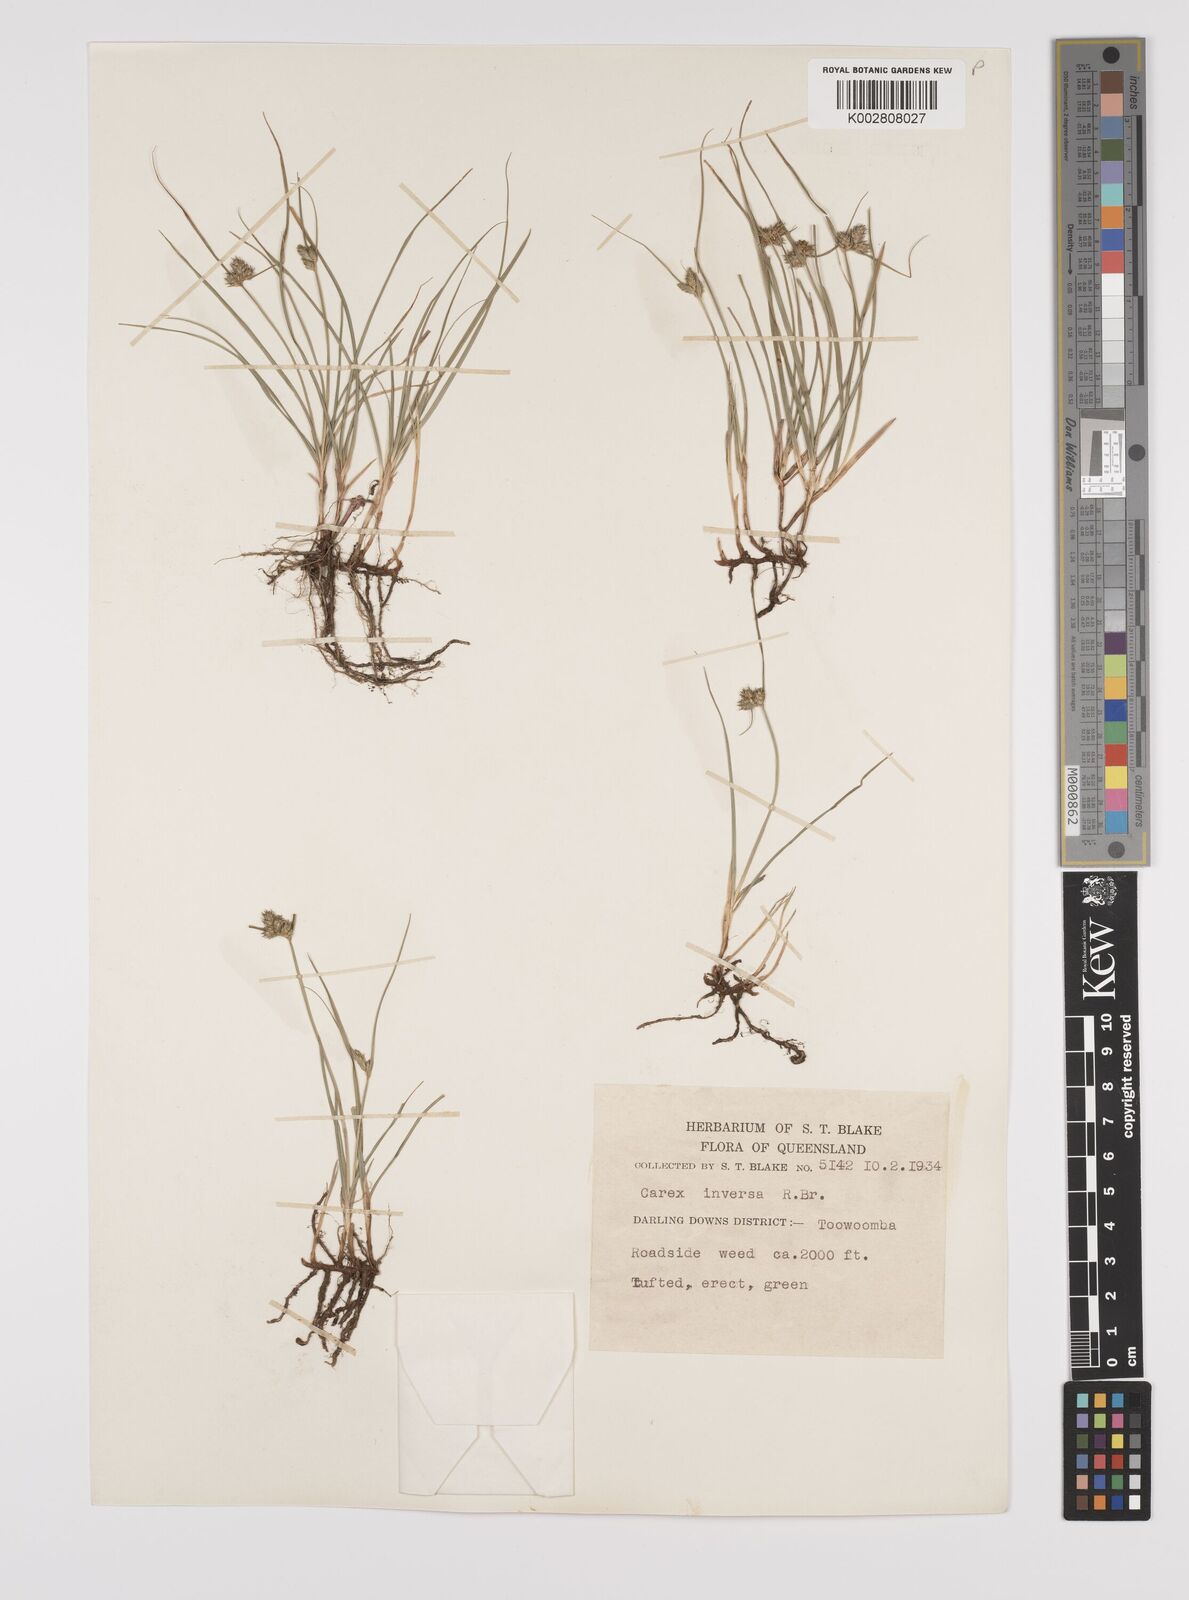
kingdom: Plantae
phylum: Tracheophyta
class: Liliopsida
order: Poales
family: Cyperaceae
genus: Carex
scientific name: Carex inversa
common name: Knob sedge
